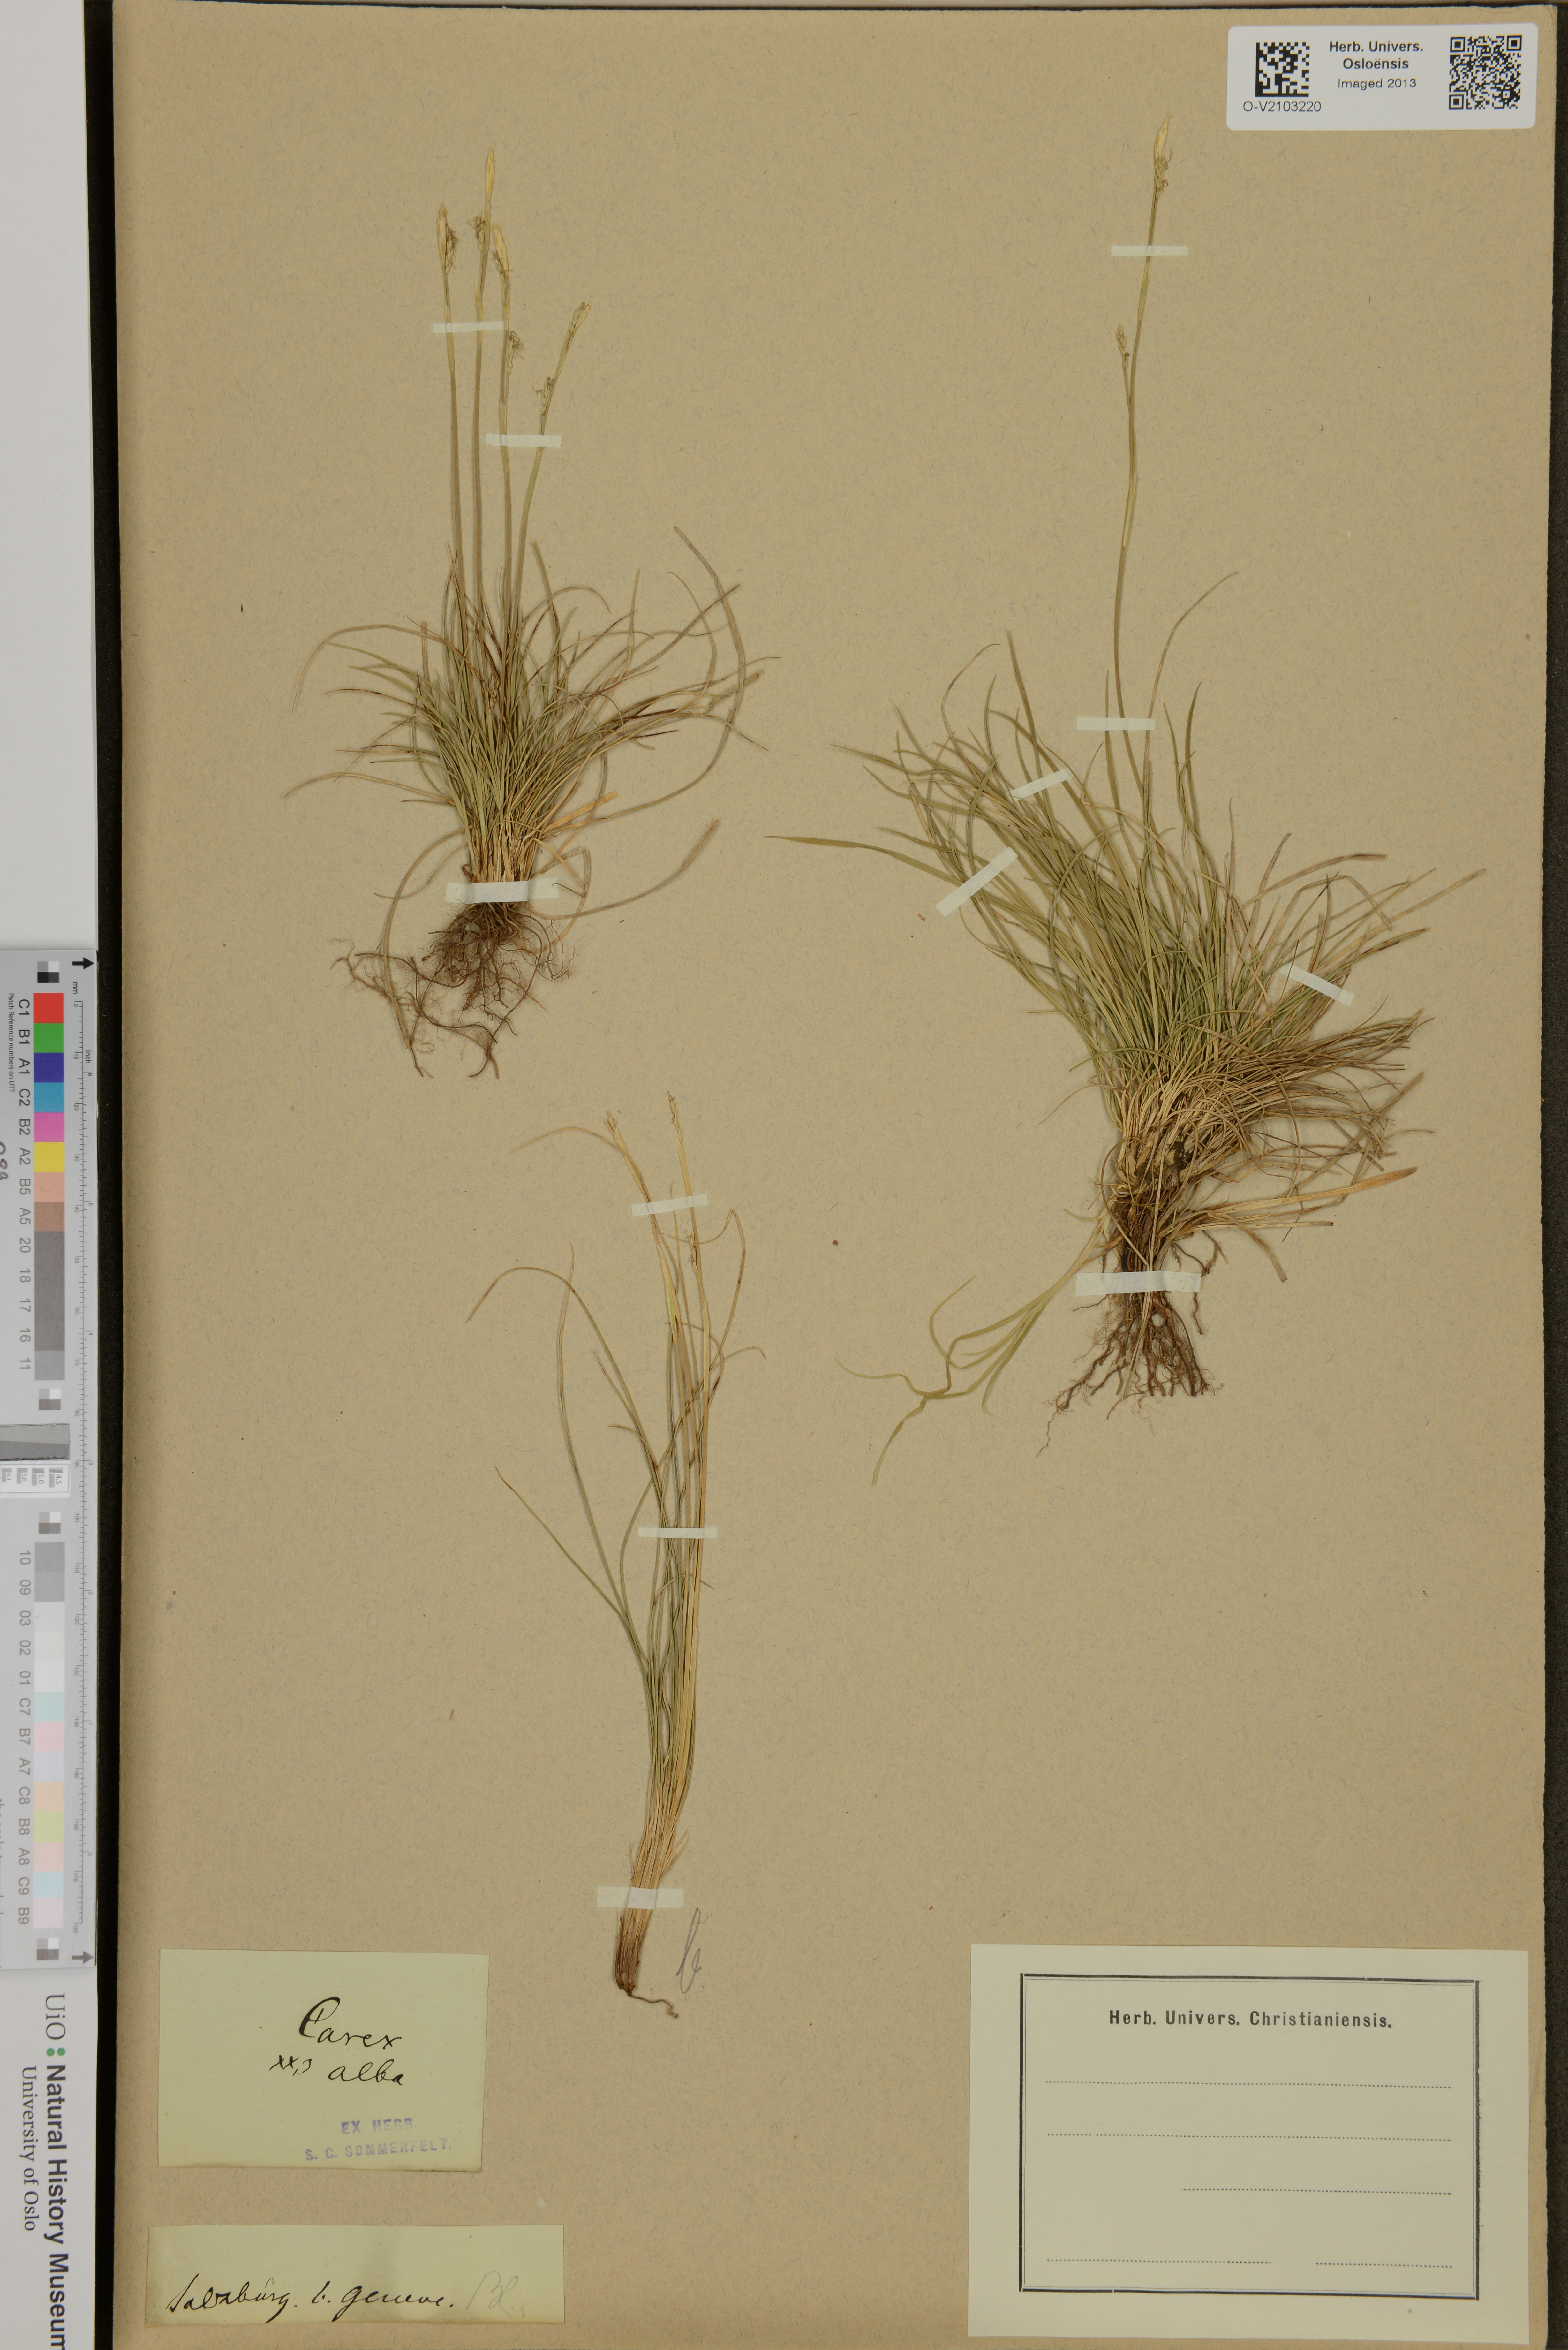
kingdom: Plantae
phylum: Tracheophyta
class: Liliopsida
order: Poales
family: Cyperaceae
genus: Carex
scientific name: Carex alba
